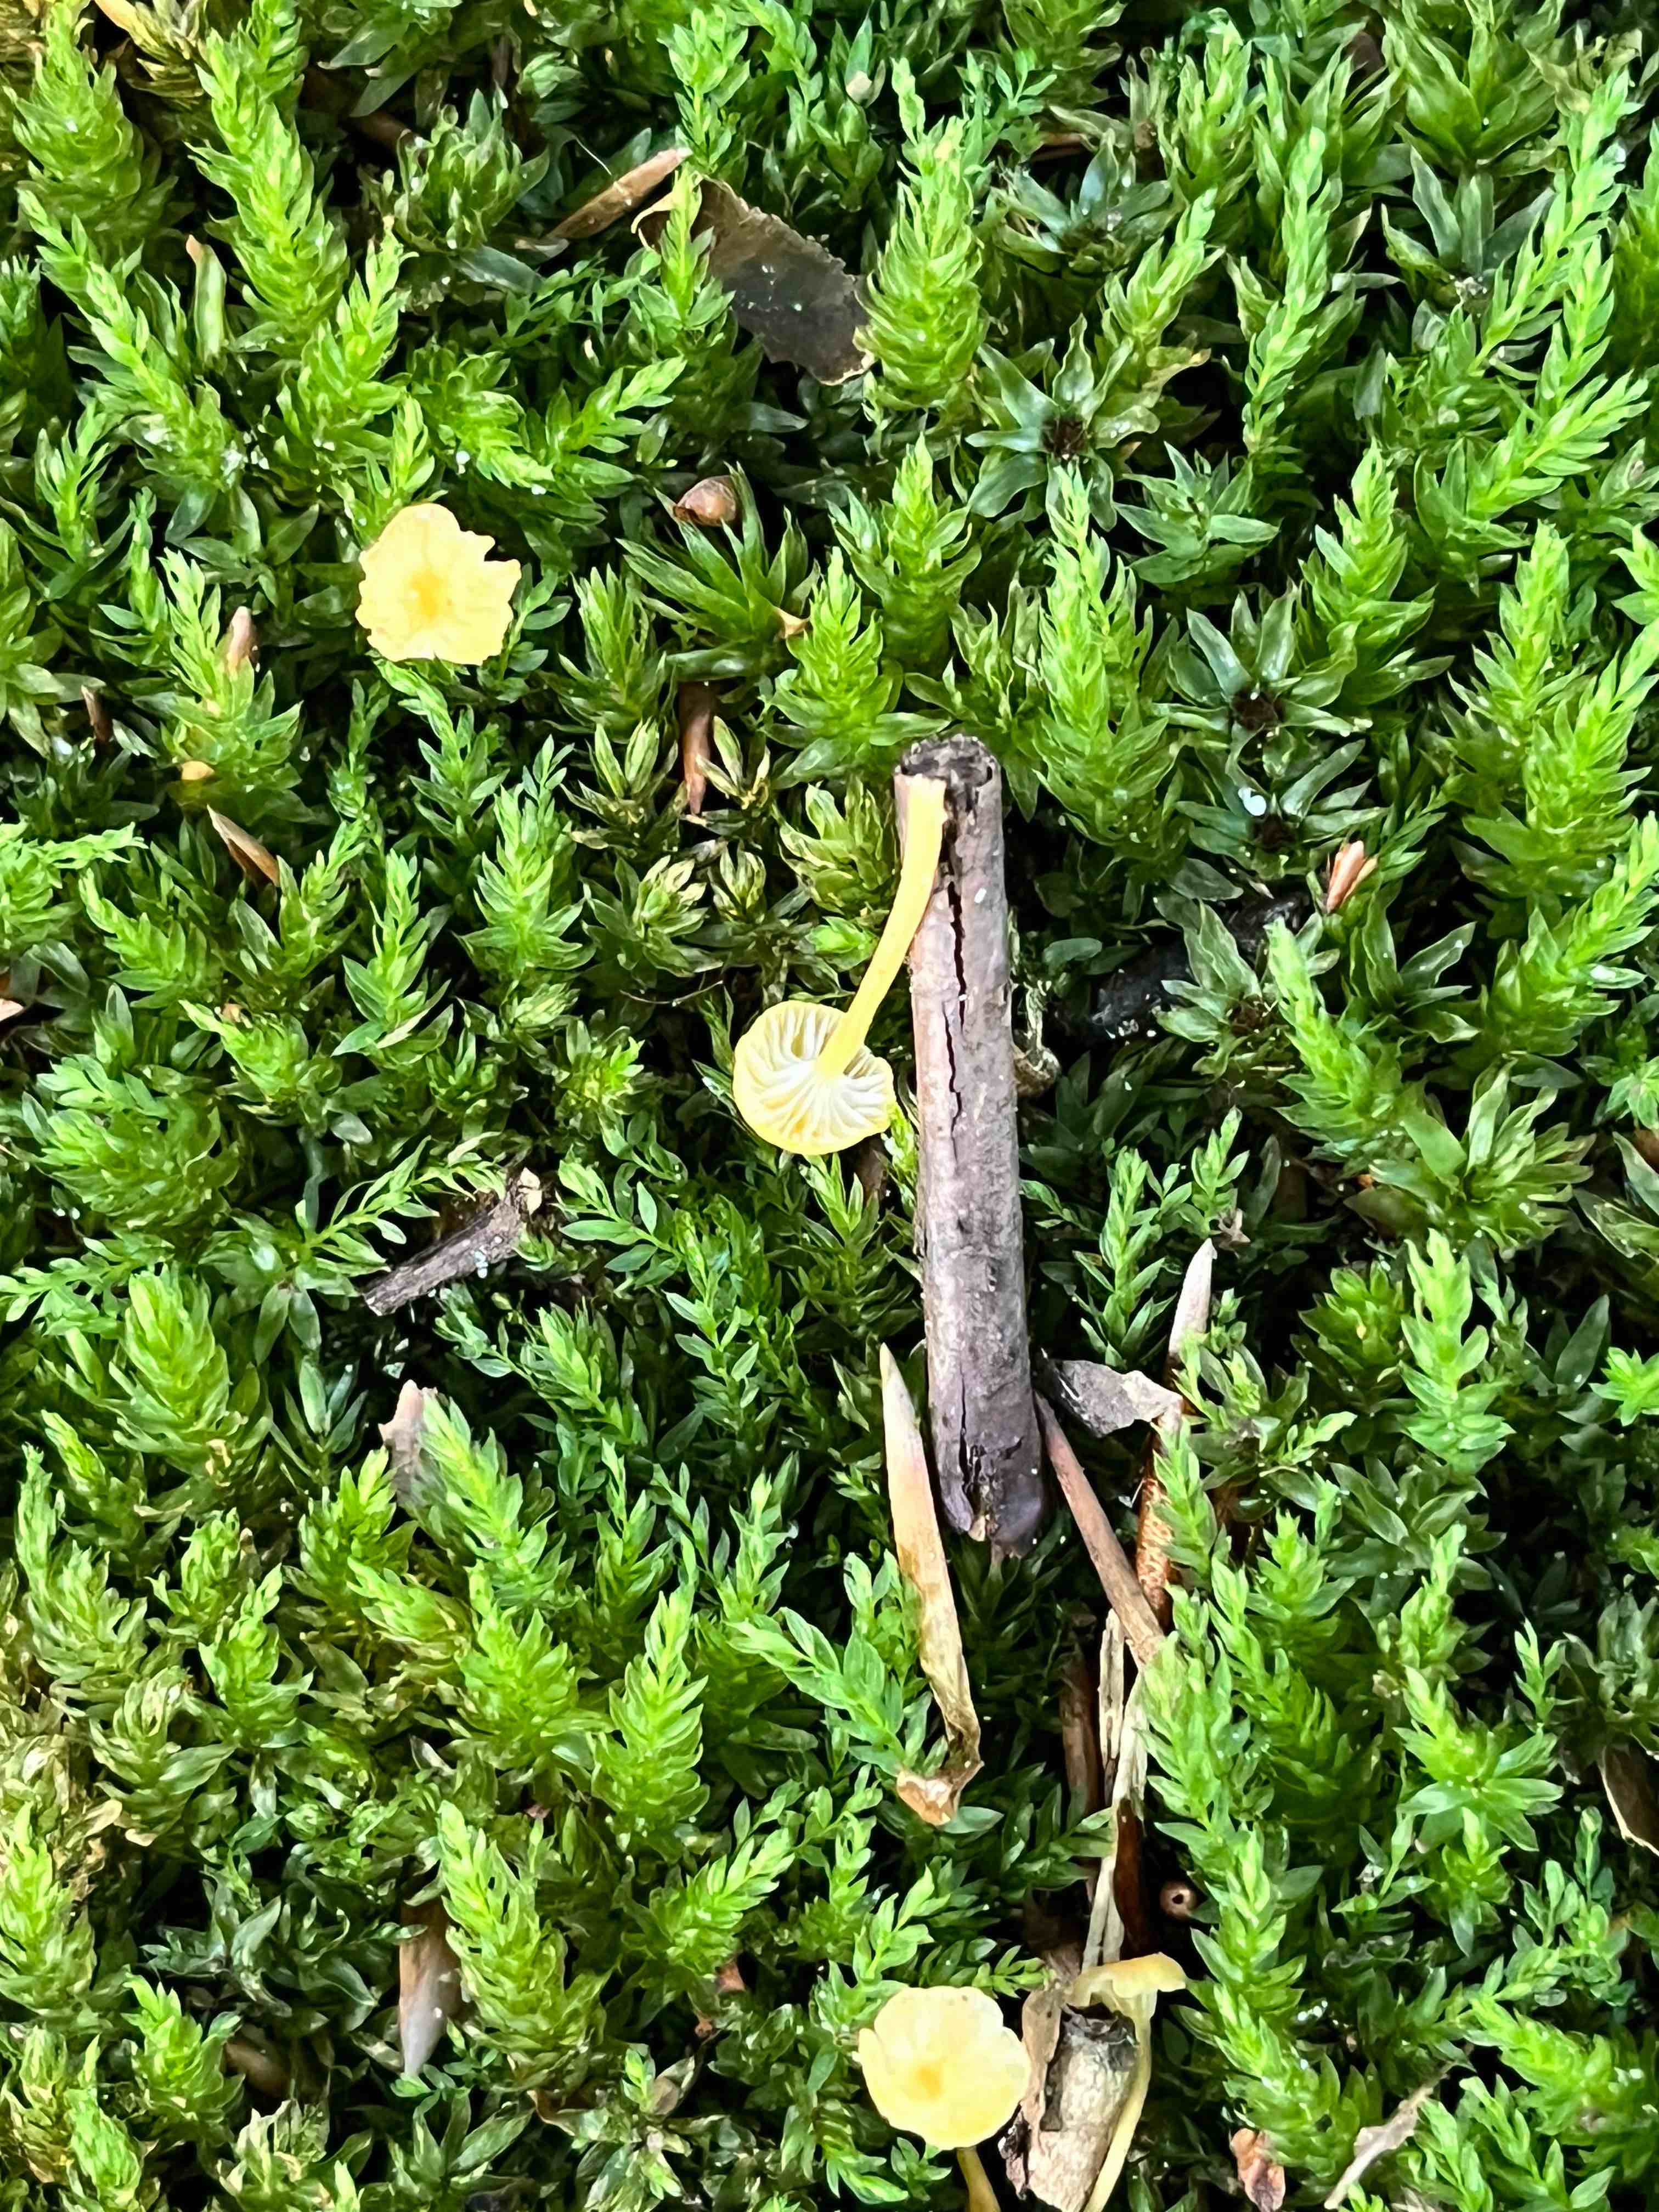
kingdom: Fungi
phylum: Basidiomycota
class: Agaricomycetes
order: Hymenochaetales
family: Rickenellaceae
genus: Rickenella
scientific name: Rickenella fibula
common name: orange mosnavlehat
